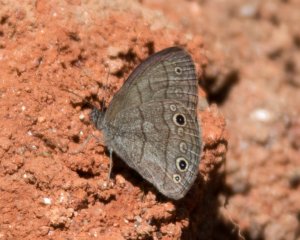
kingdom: Animalia
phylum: Arthropoda
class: Insecta
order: Lepidoptera
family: Nymphalidae
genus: Hermeuptychia
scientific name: Hermeuptychia hermes
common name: Carolina Satyr
